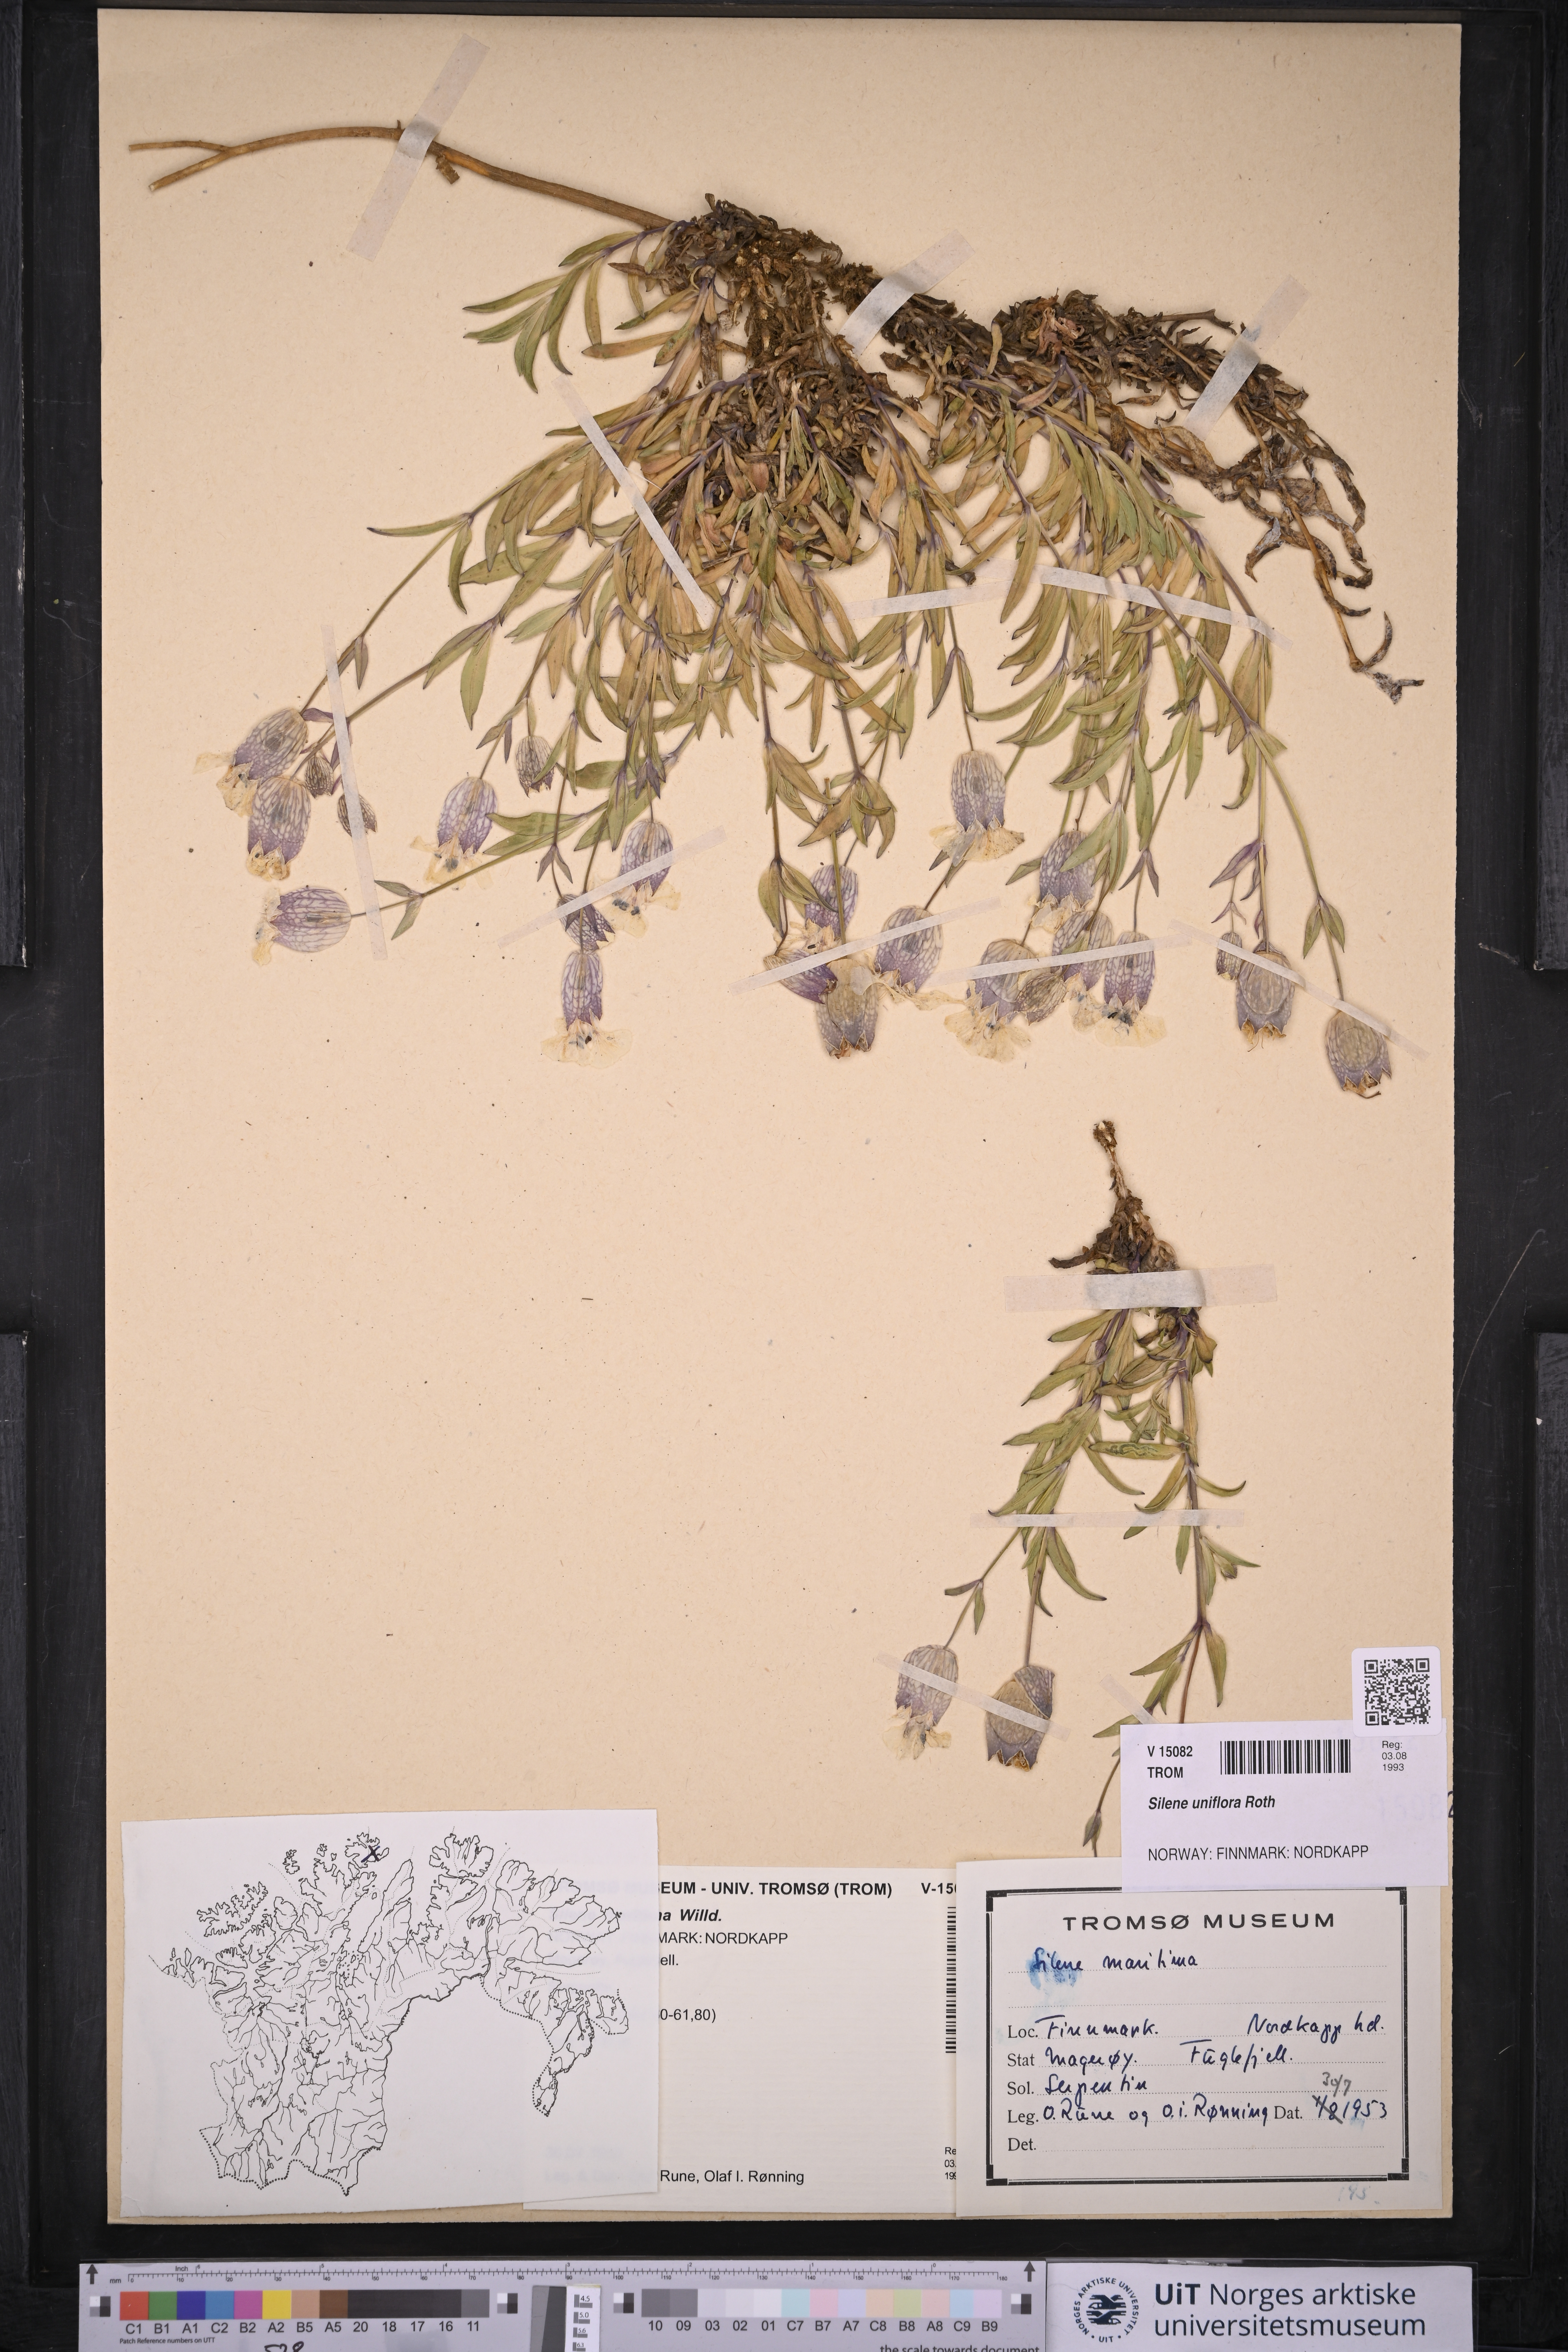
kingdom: Plantae
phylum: Tracheophyta
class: Magnoliopsida
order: Caryophyllales
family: Caryophyllaceae
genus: Silene
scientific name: Silene uniflora
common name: Sea campion
